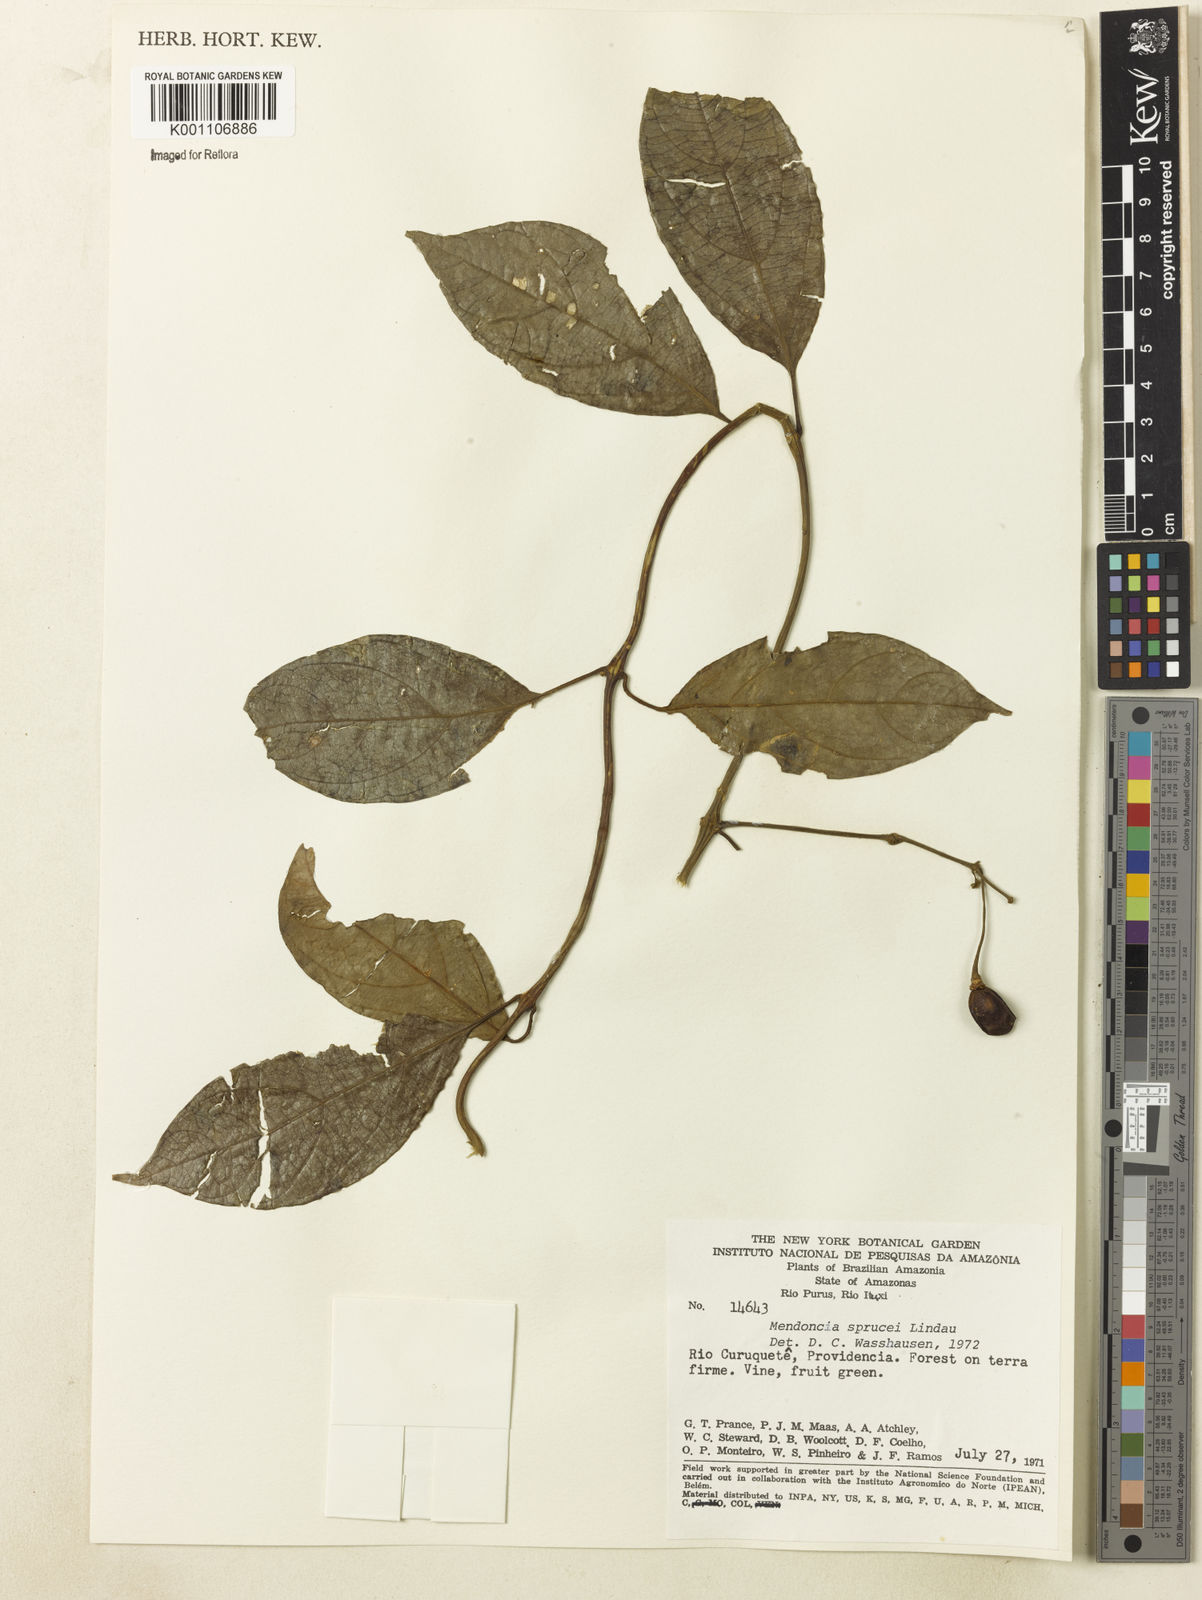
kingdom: Plantae
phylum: Tracheophyta
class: Magnoliopsida
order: Lamiales
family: Acanthaceae
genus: Mendoncia
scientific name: Mendoncia sprucei
